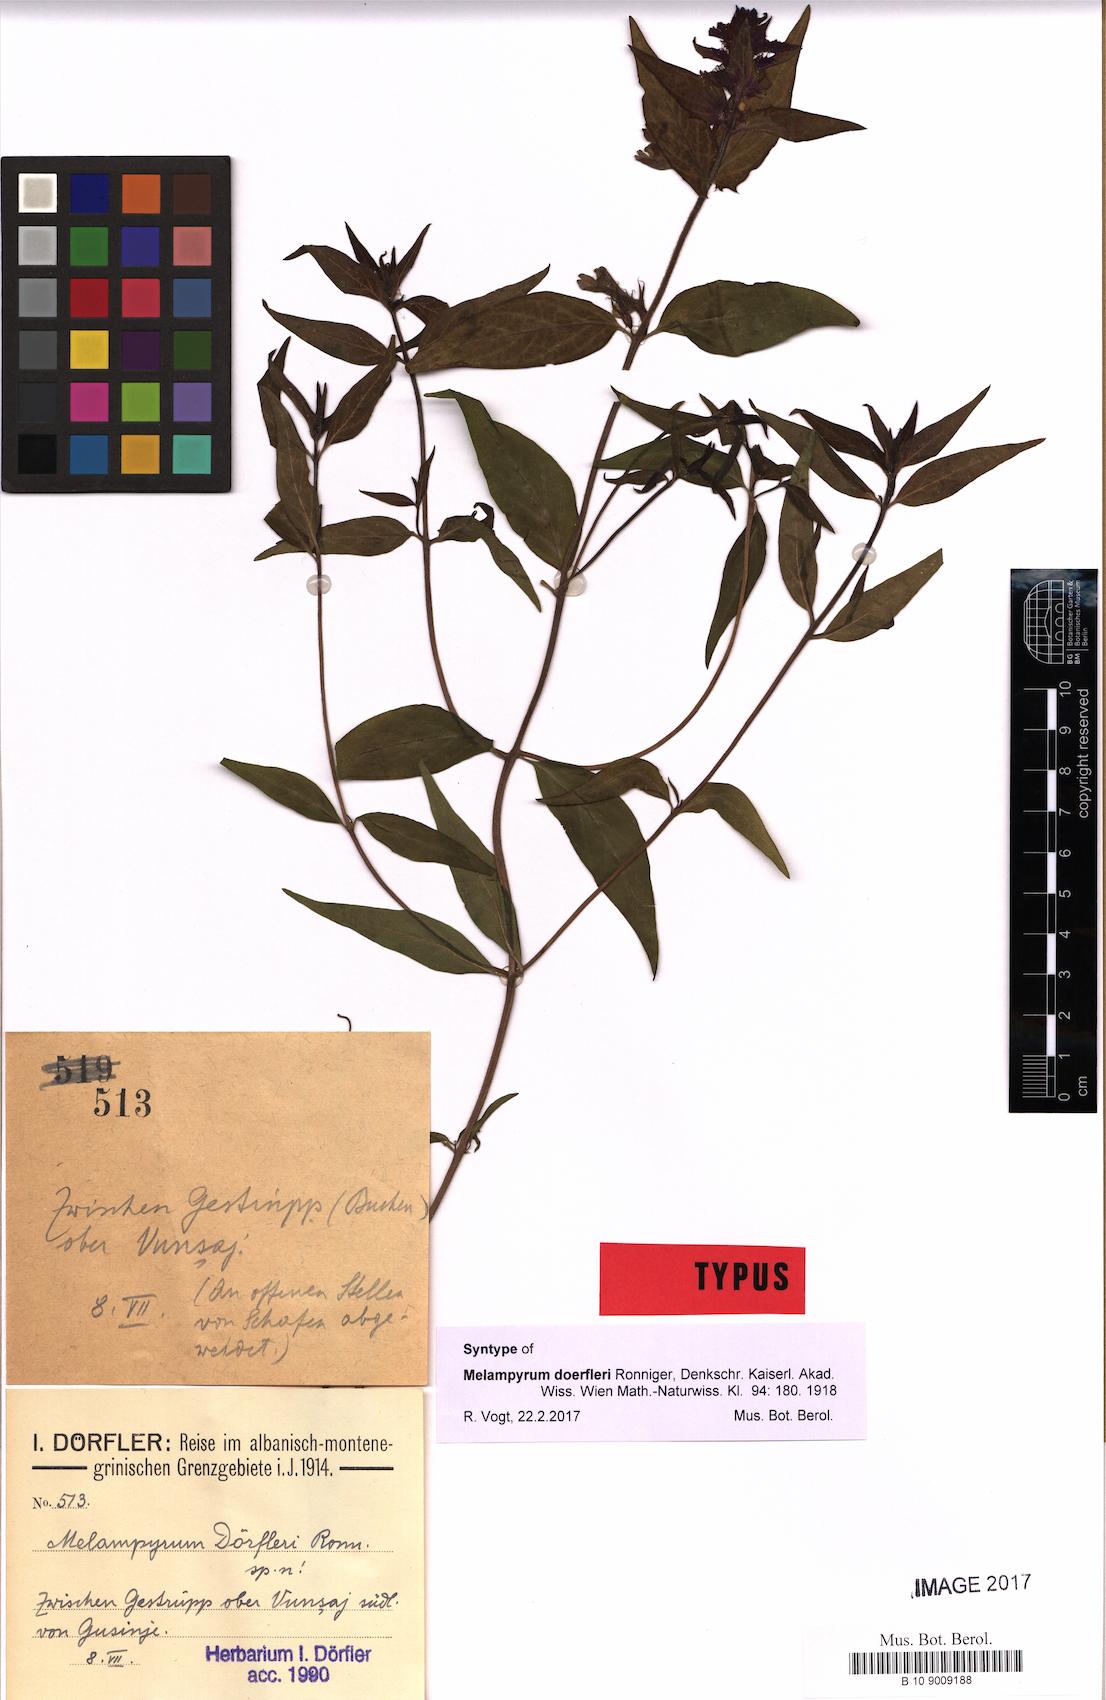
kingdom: Plantae
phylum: Tracheophyta
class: Magnoliopsida
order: Lamiales
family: Orobanchaceae
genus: Melampyrum
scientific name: Melampyrum doerfleri
